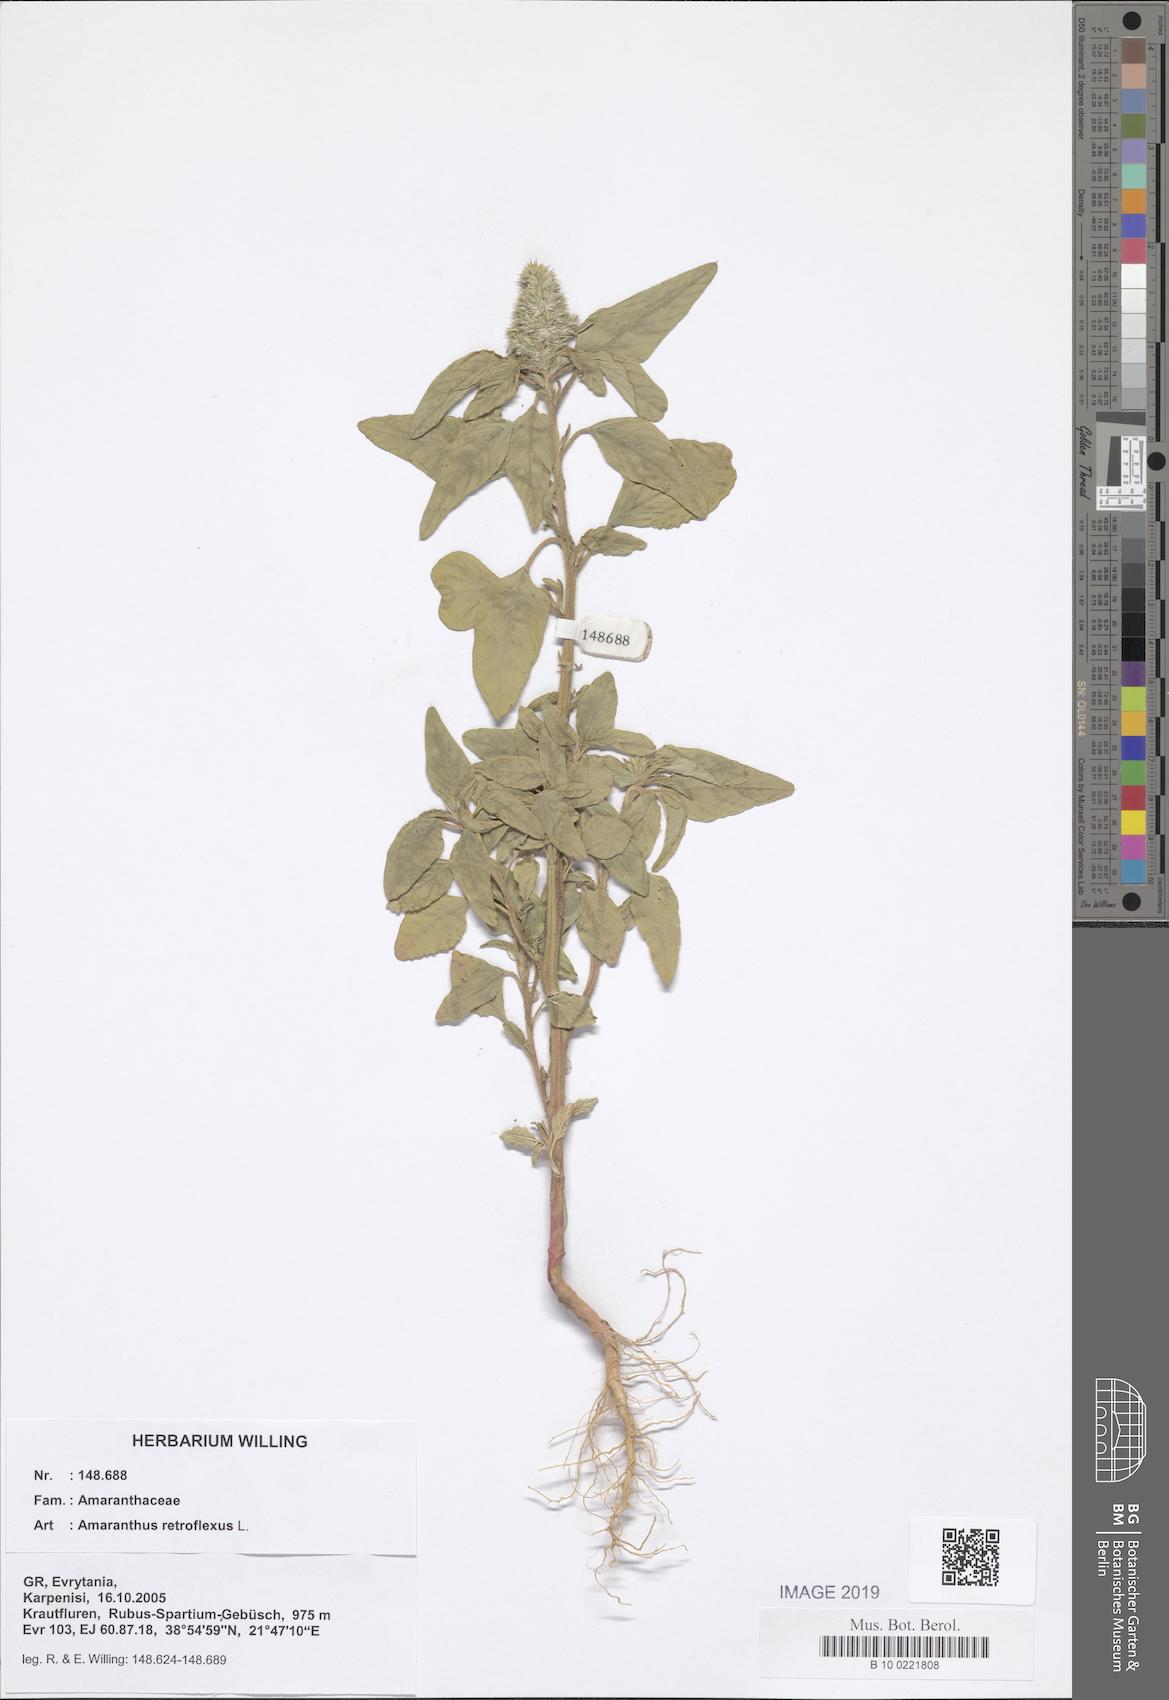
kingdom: Plantae
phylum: Tracheophyta
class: Magnoliopsida
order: Caryophyllales
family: Amaranthaceae
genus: Amaranthus
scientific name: Amaranthus retroflexus
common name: Redroot amaranth
